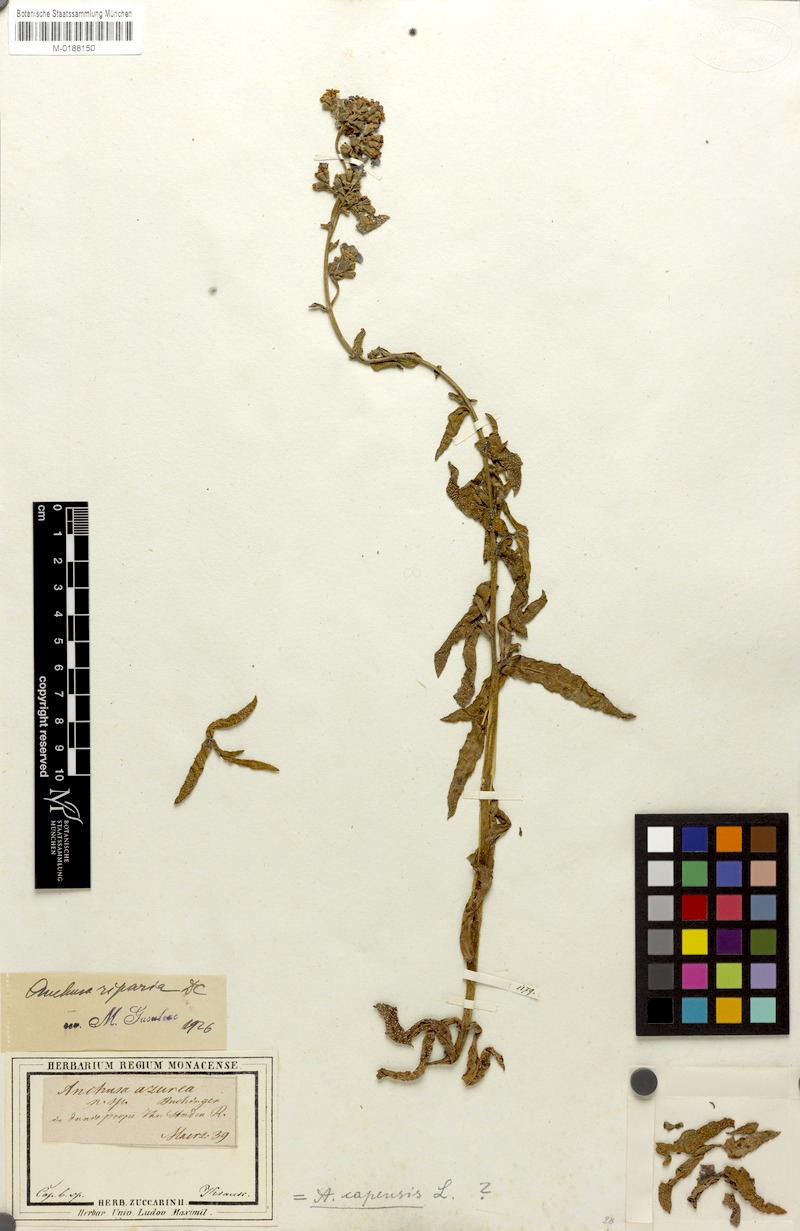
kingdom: Plantae
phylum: Tracheophyta
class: Magnoliopsida
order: Boraginales
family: Boraginaceae
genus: Anchusa
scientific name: Anchusa capensis
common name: Cape bugloss
